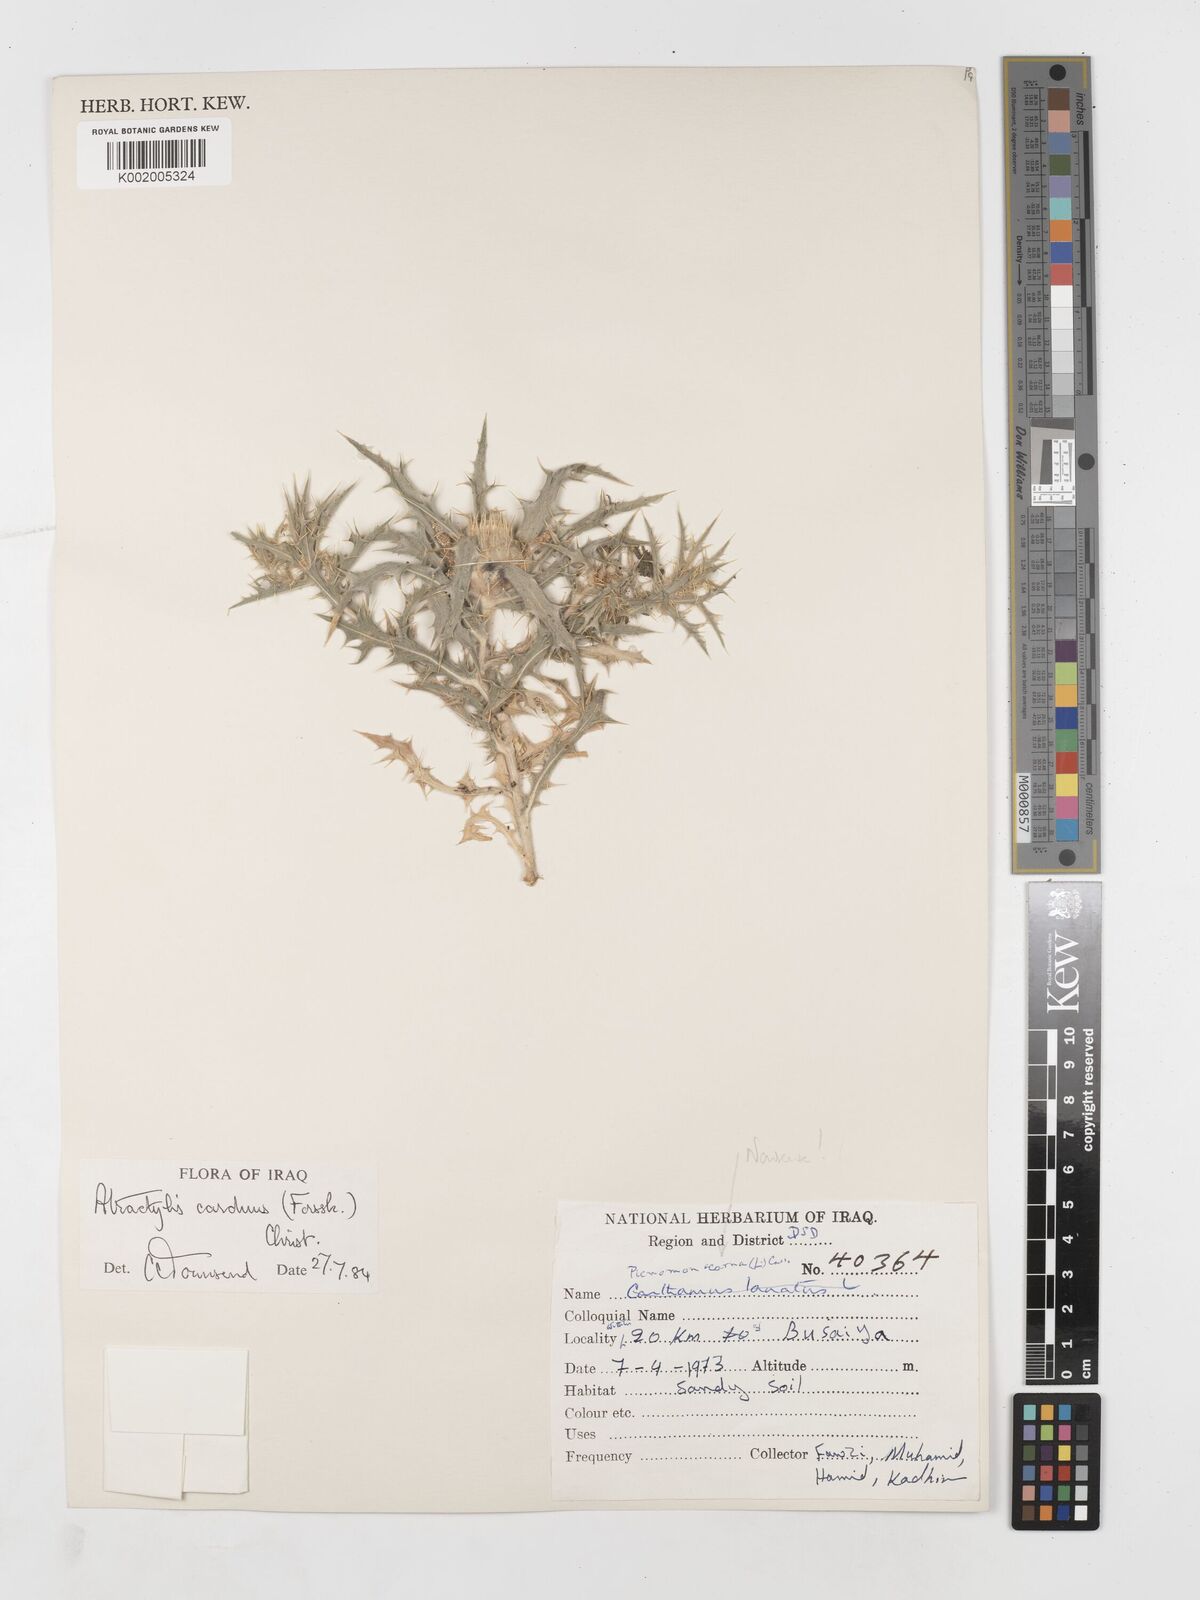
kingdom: Plantae
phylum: Tracheophyta
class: Magnoliopsida
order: Asterales
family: Asteraceae
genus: Atractylis
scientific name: Atractylis carduus
